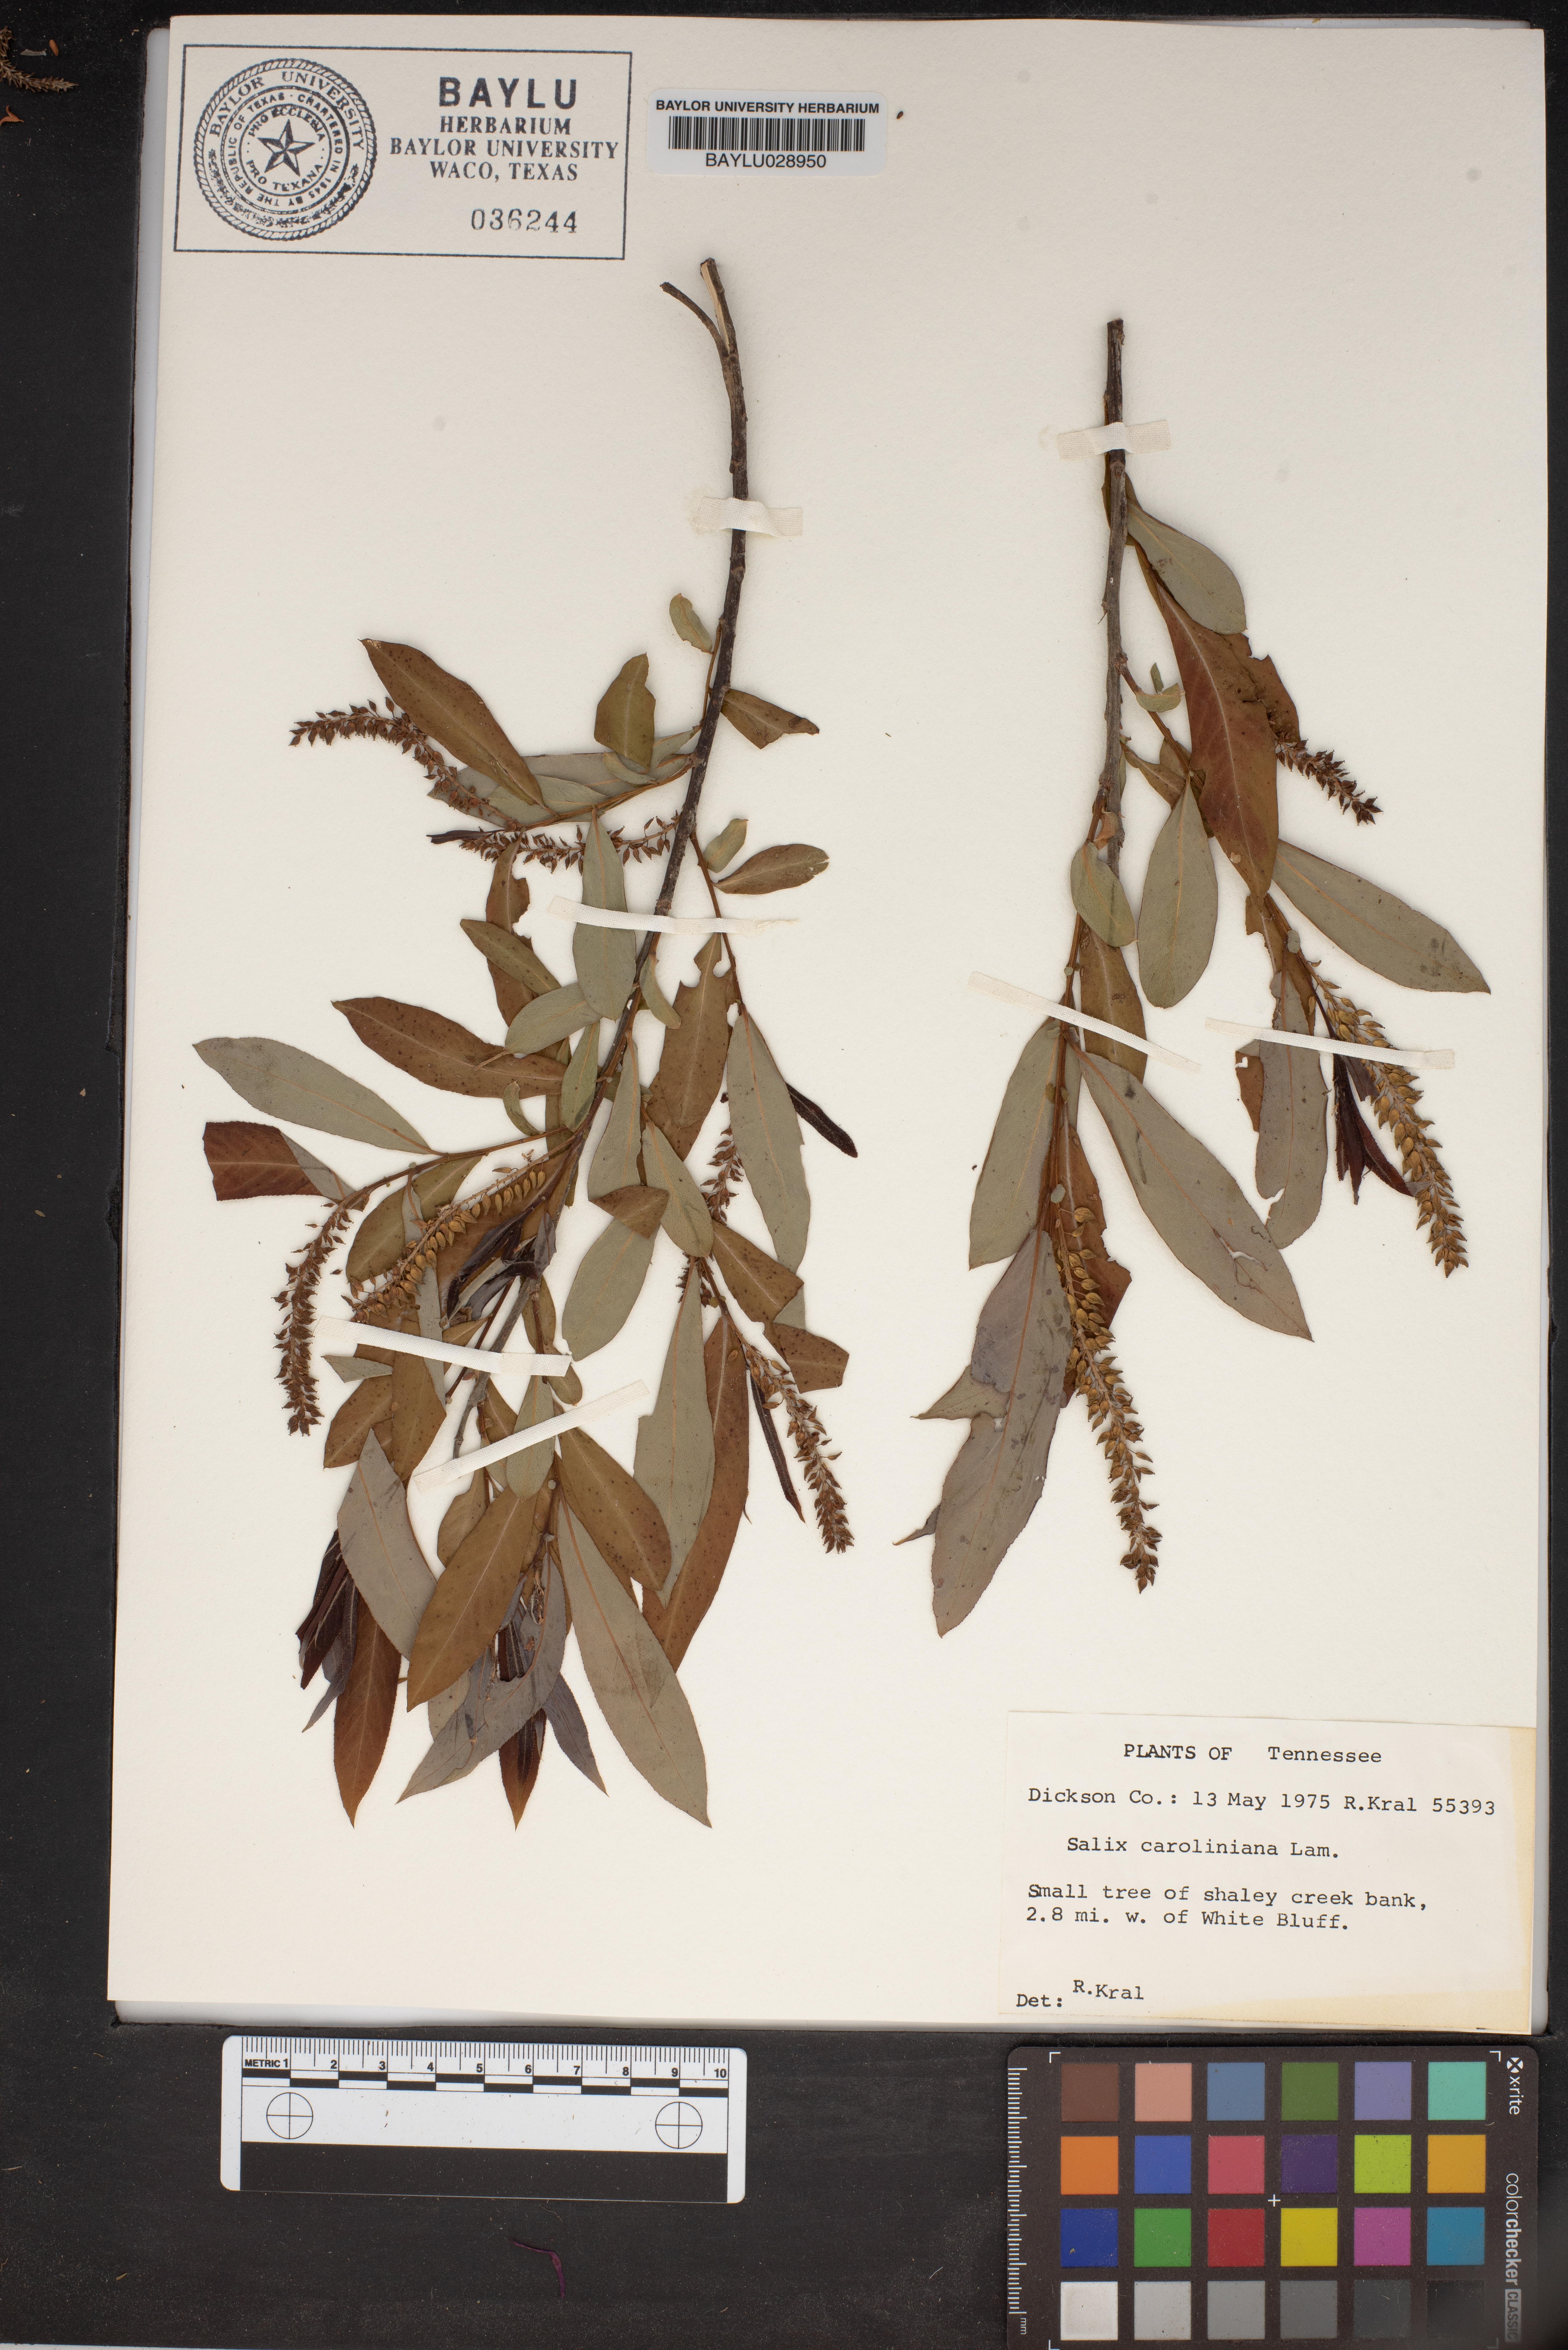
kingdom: Plantae
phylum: Tracheophyta
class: Magnoliopsida
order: Malpighiales
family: Salicaceae
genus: Salix
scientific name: Salix caroliniana
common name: Carolina willow
